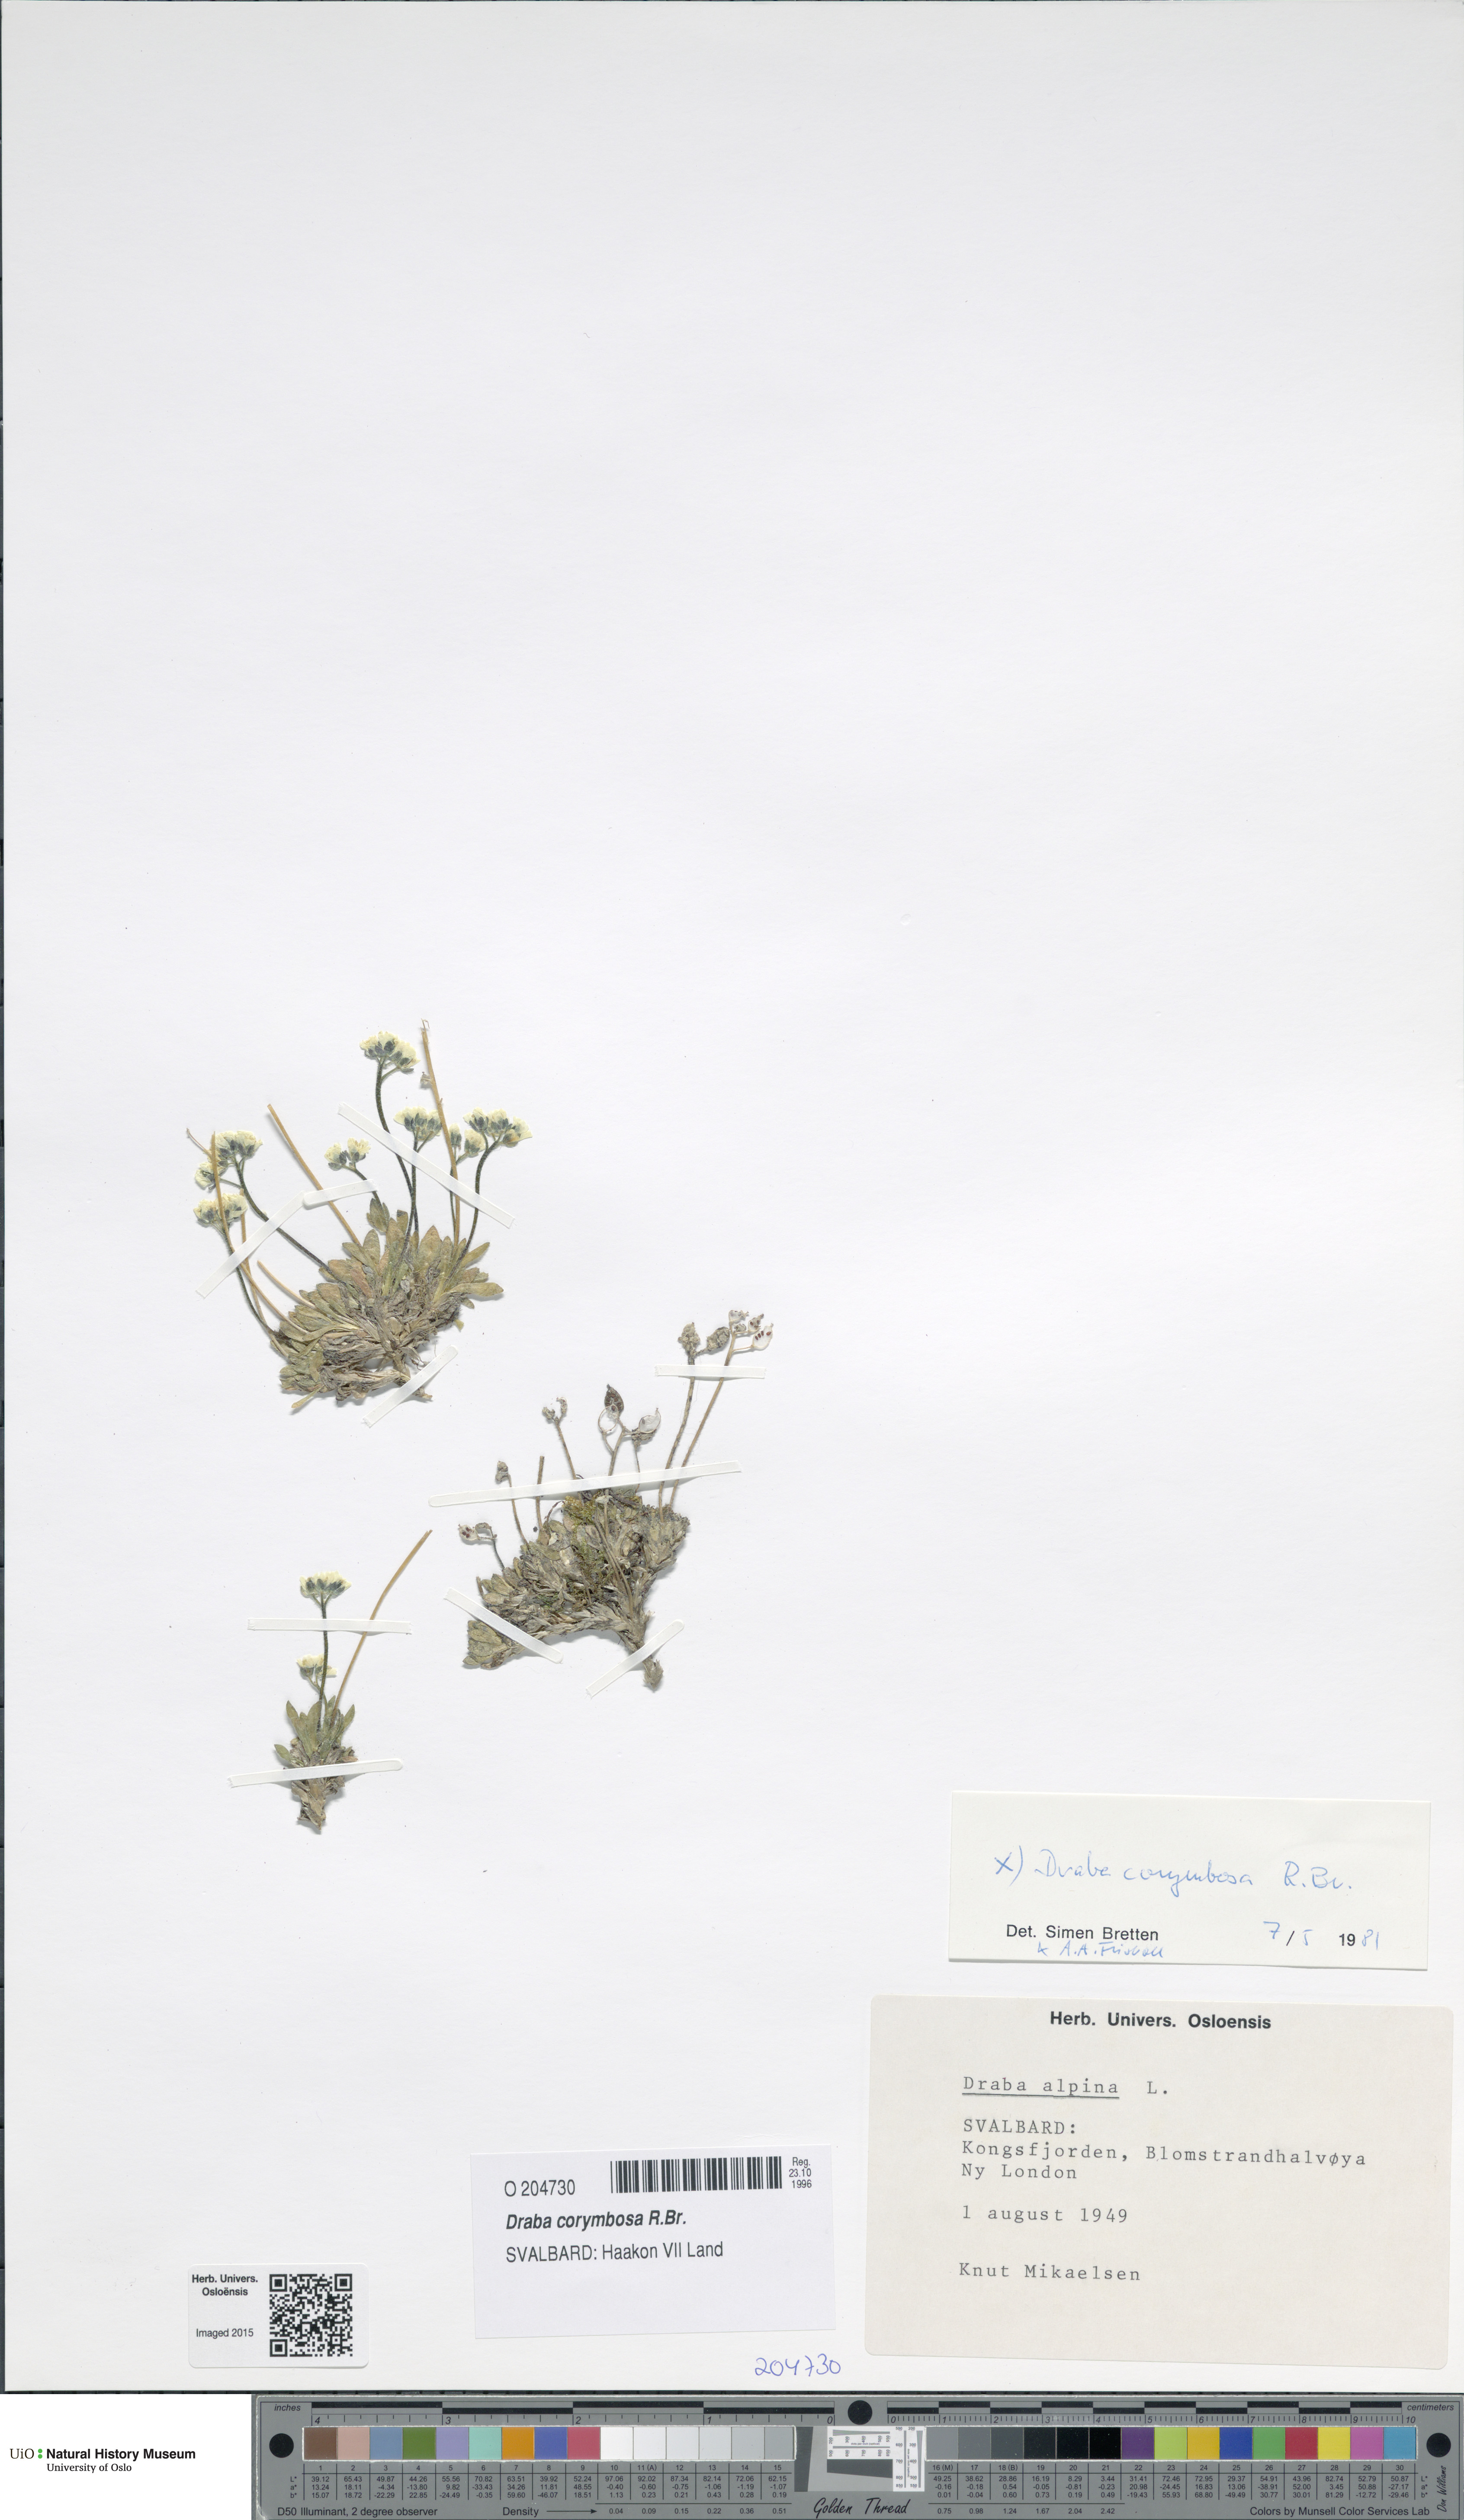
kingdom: Plantae
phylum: Tracheophyta
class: Magnoliopsida
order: Brassicales
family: Brassicaceae
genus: Draba
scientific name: Draba corymbosa
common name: Cushion whitlow-grass
